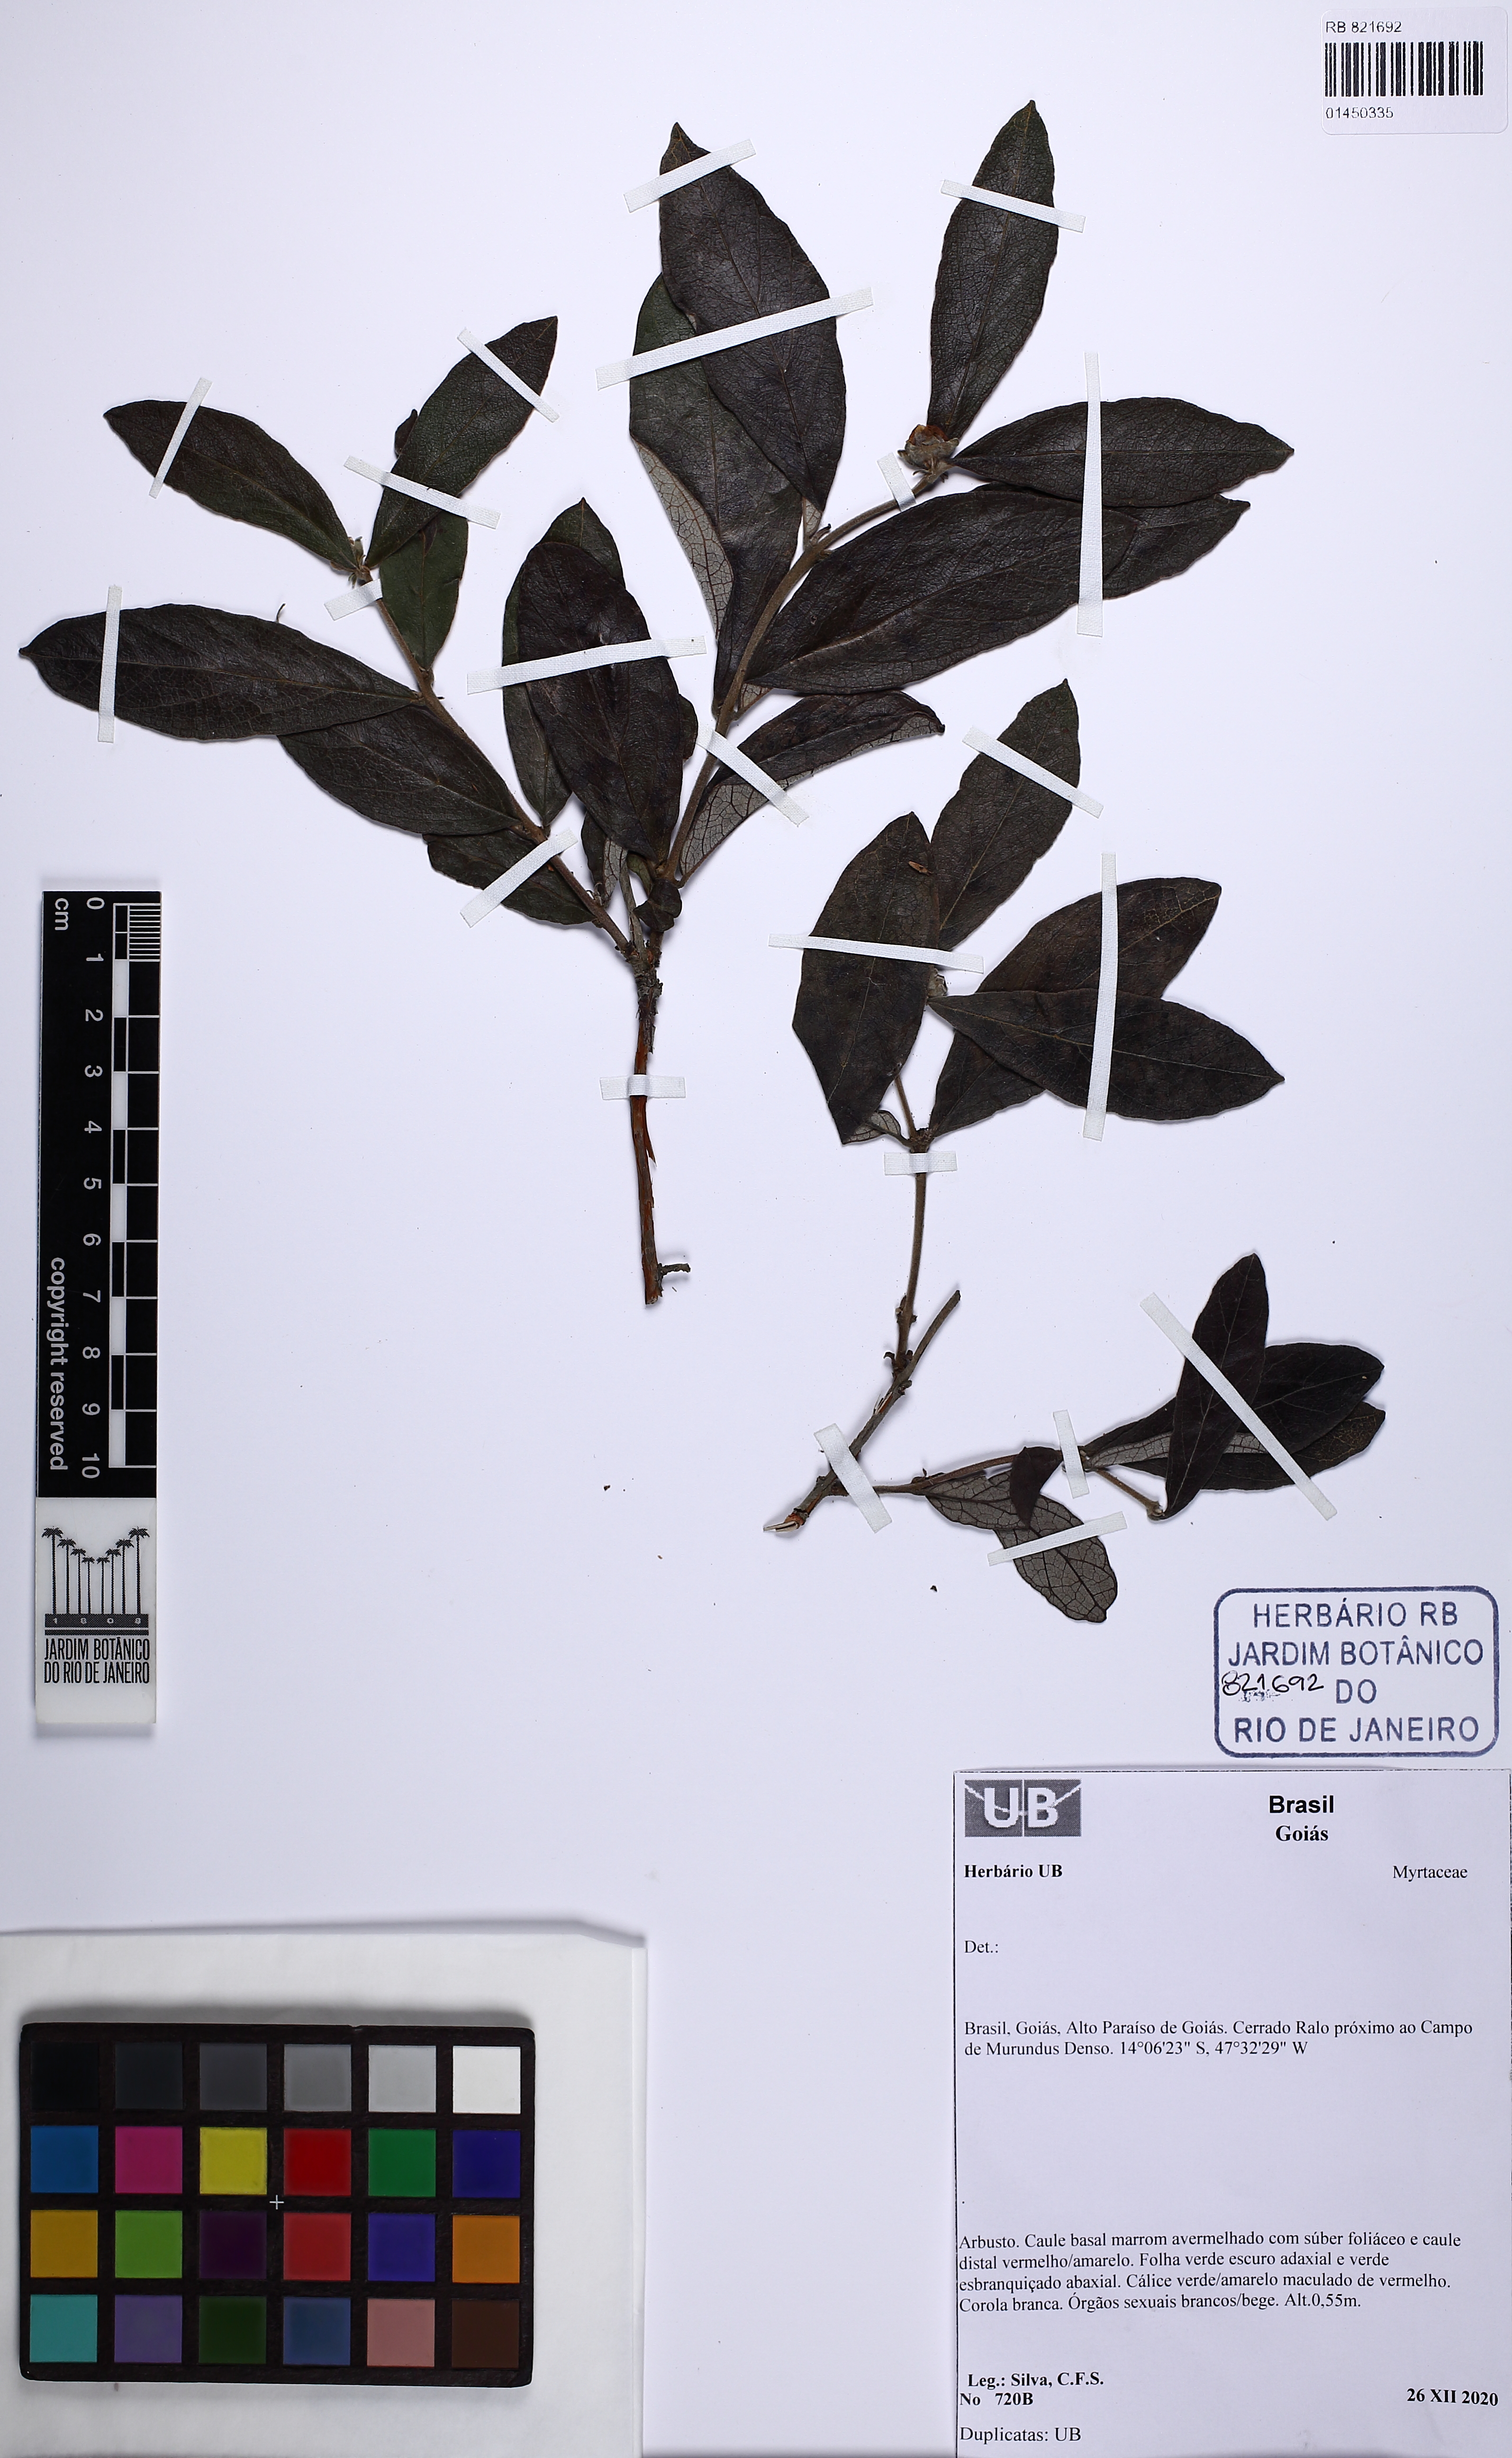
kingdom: Plantae
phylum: Tracheophyta
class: Magnoliopsida
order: Myrtales
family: Myrtaceae
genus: Campomanesia
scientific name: Campomanesia sessiliflora
